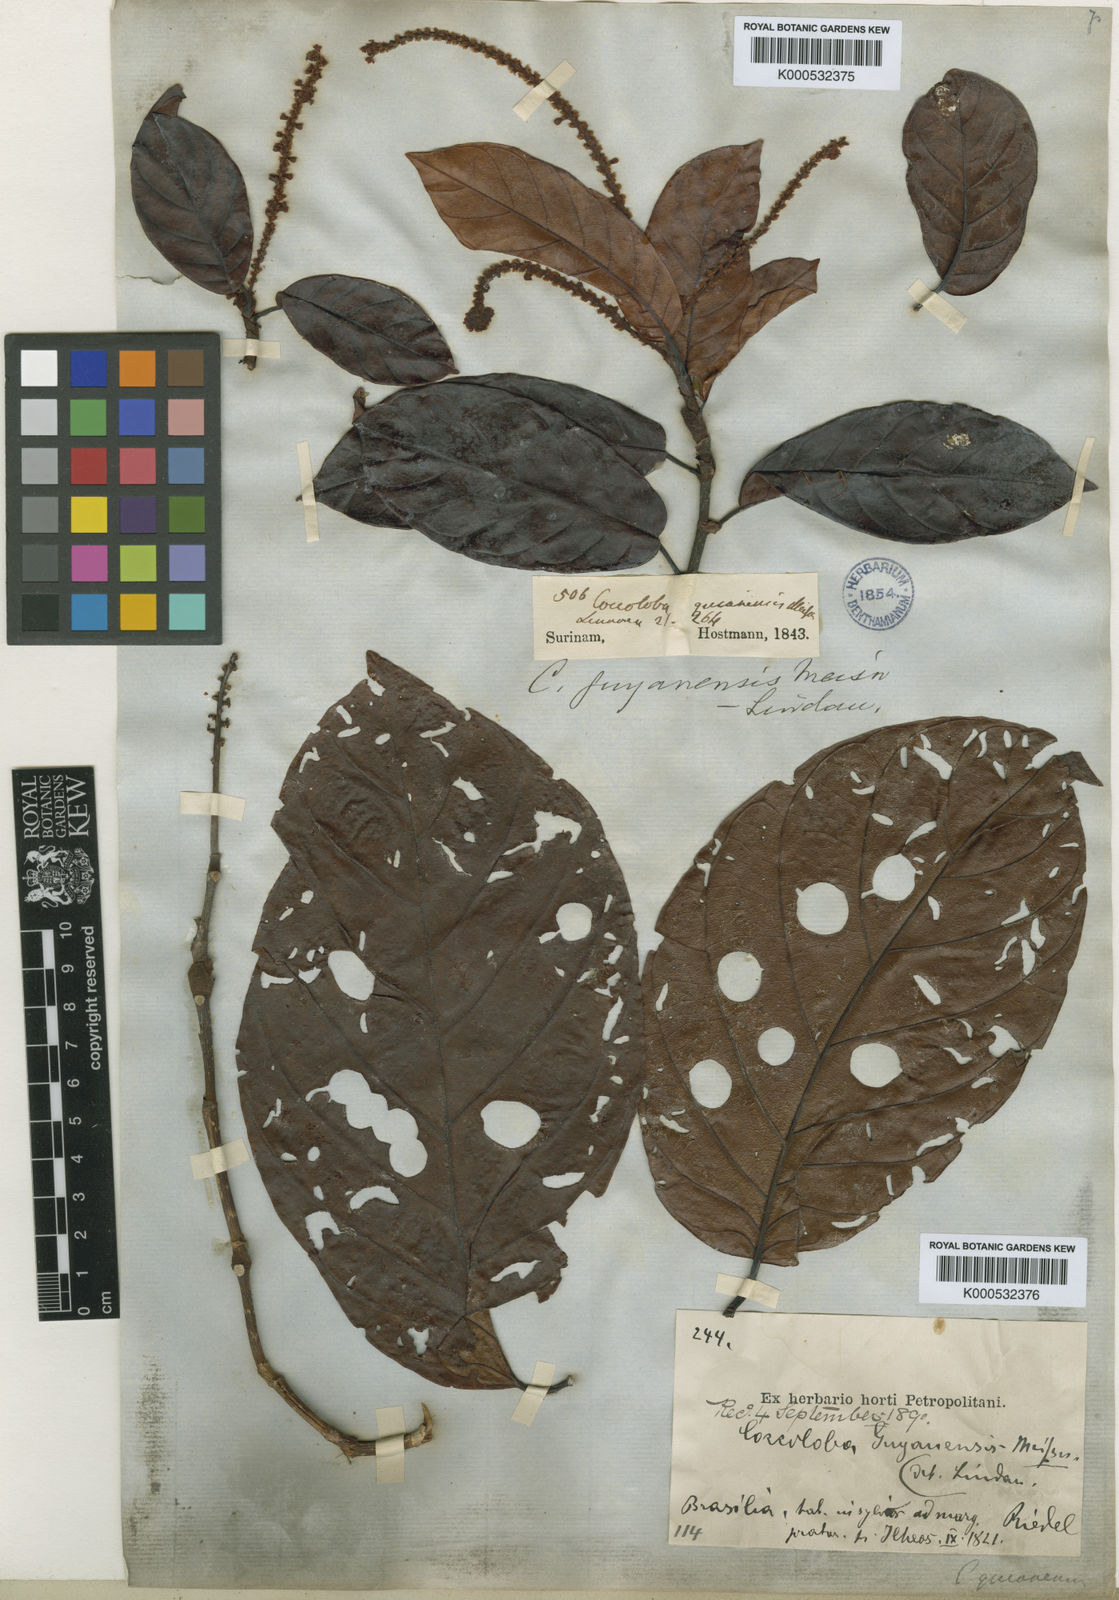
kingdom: Plantae
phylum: Tracheophyta
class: Magnoliopsida
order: Caryophyllales
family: Polygonaceae
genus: Coccoloba
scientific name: Coccoloba nitida
